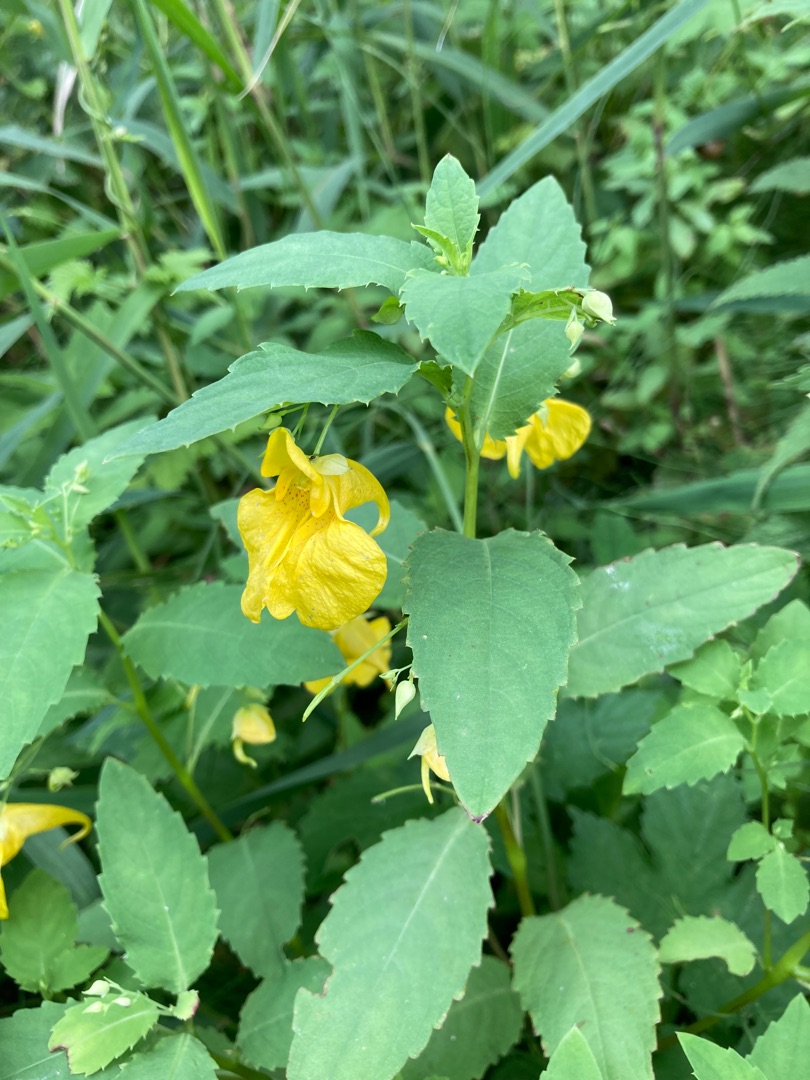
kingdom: Plantae
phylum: Tracheophyta
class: Magnoliopsida
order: Ericales
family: Balsaminaceae
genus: Impatiens
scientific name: Impatiens noli-tangere
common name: Spring-balsamin
